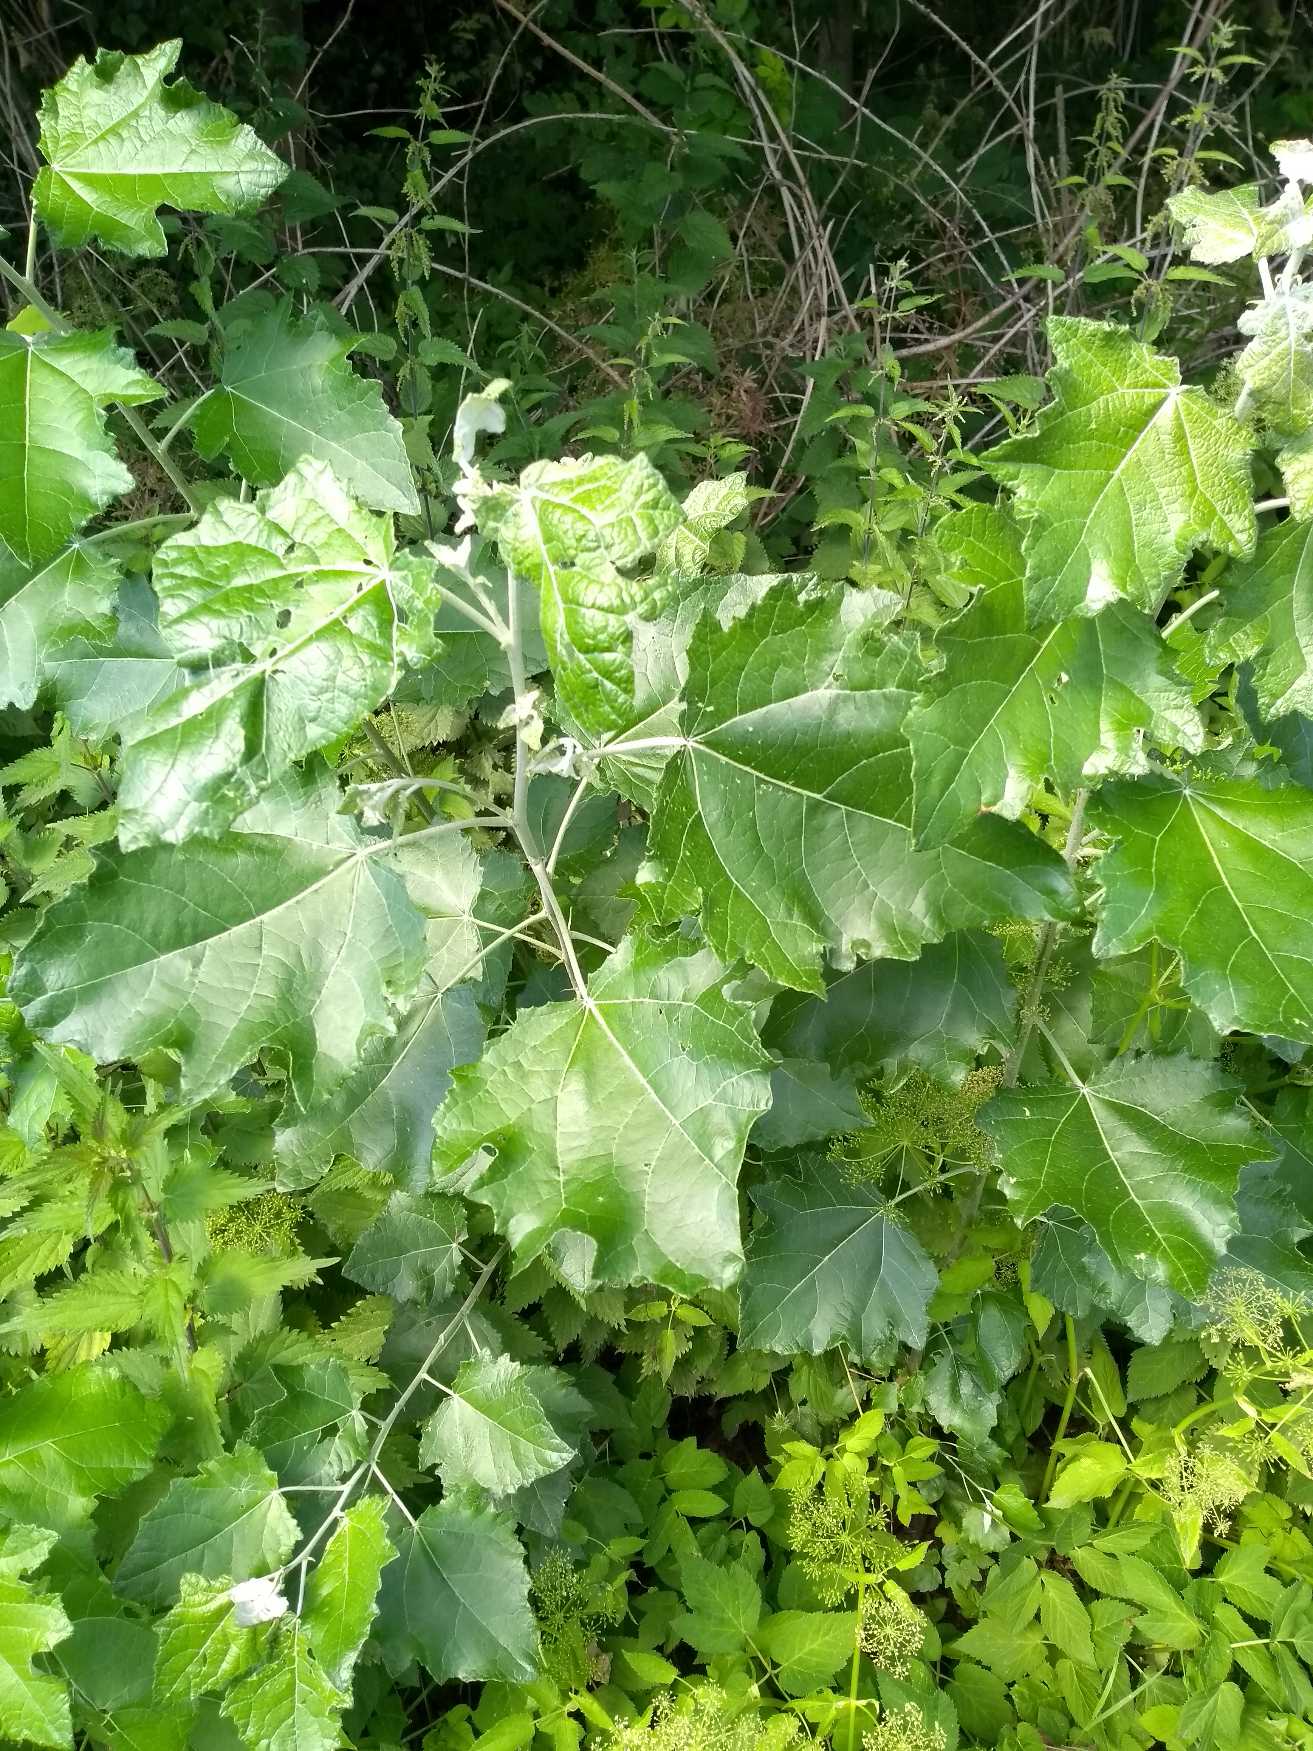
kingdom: Plantae
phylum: Tracheophyta
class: Magnoliopsida
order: Sapindales
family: Sapindaceae
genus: Acer
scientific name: Acer pseudoplatanus
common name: Ahorn
